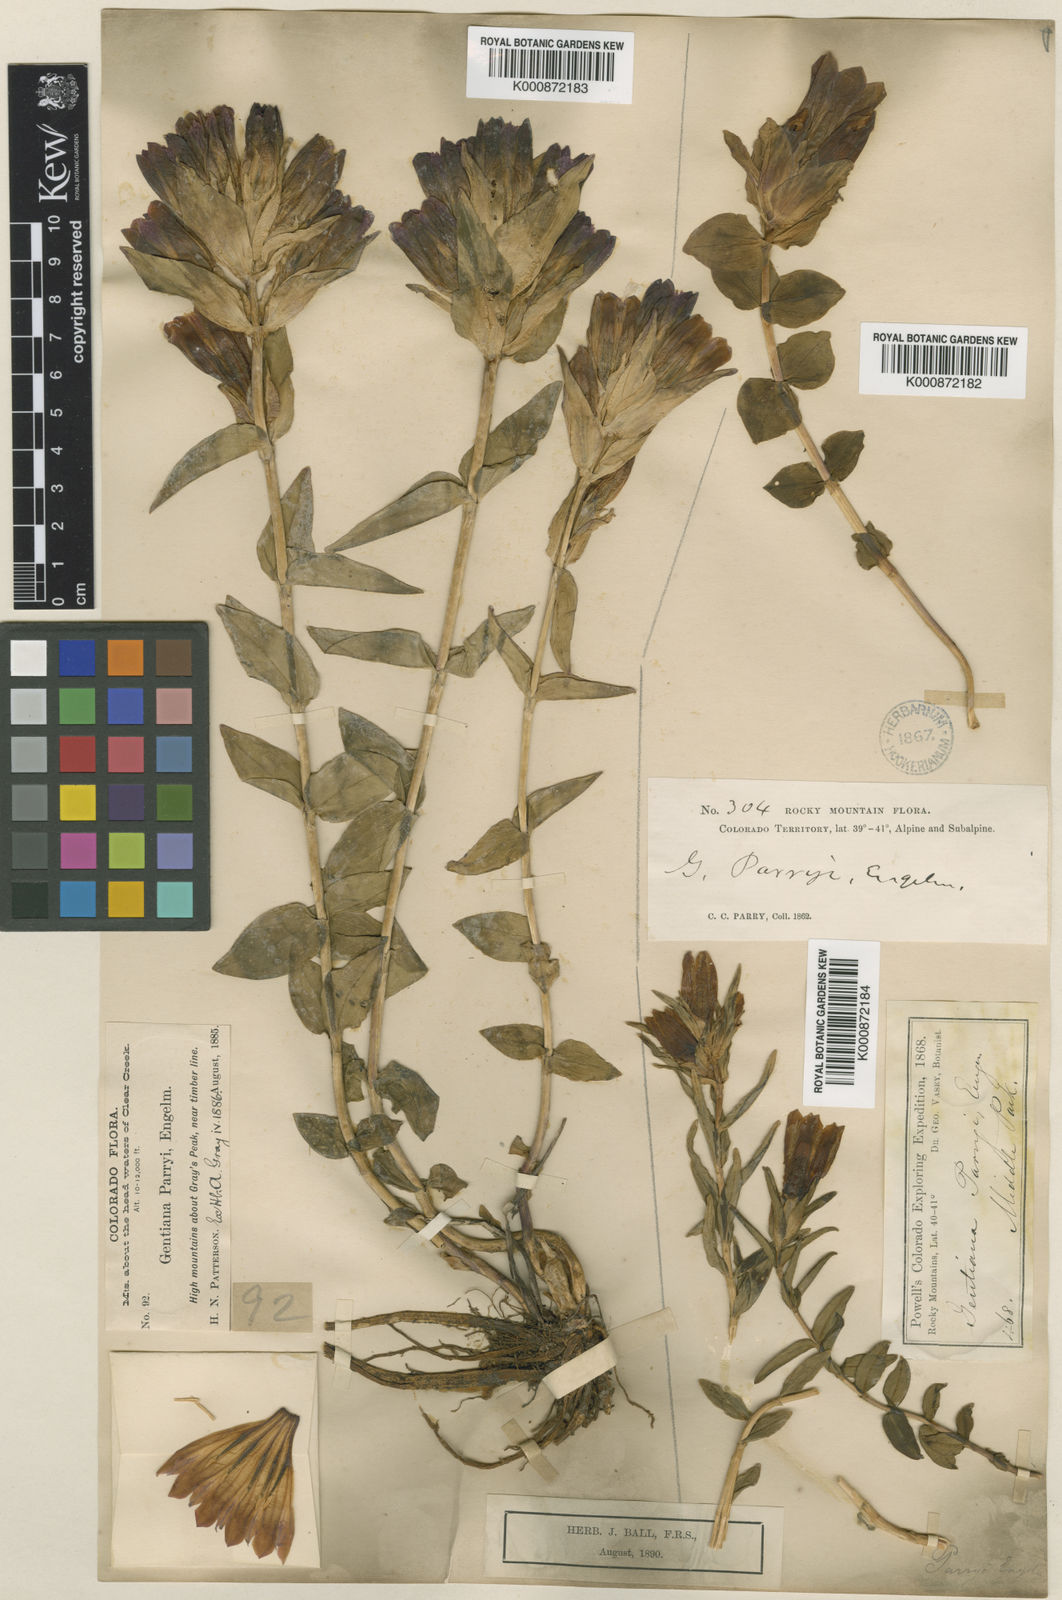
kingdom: Plantae
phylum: Tracheophyta
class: Magnoliopsida
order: Gentianales
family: Gentianaceae
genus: Gentiana
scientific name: Gentiana parryi
